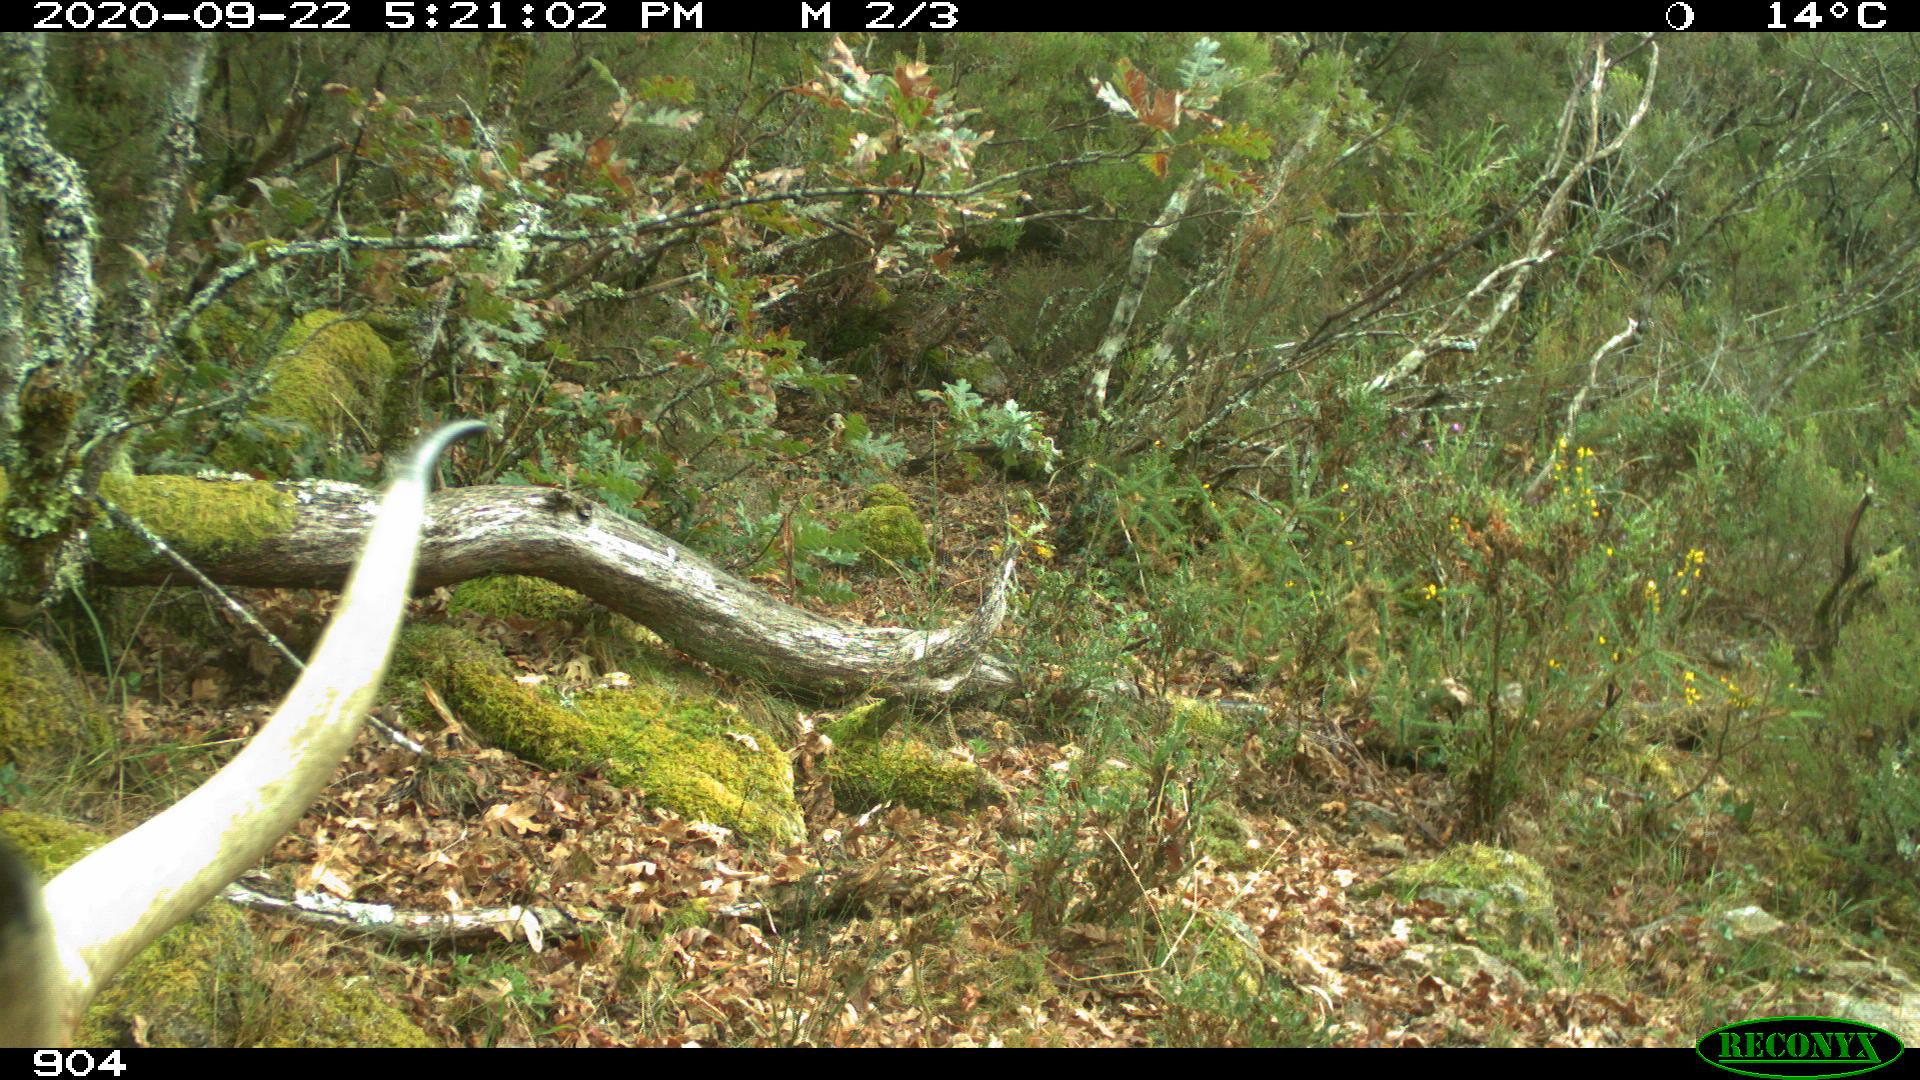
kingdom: Animalia
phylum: Chordata
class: Mammalia
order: Artiodactyla
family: Bovidae
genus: Bos
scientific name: Bos taurus
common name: Domesticated cattle
